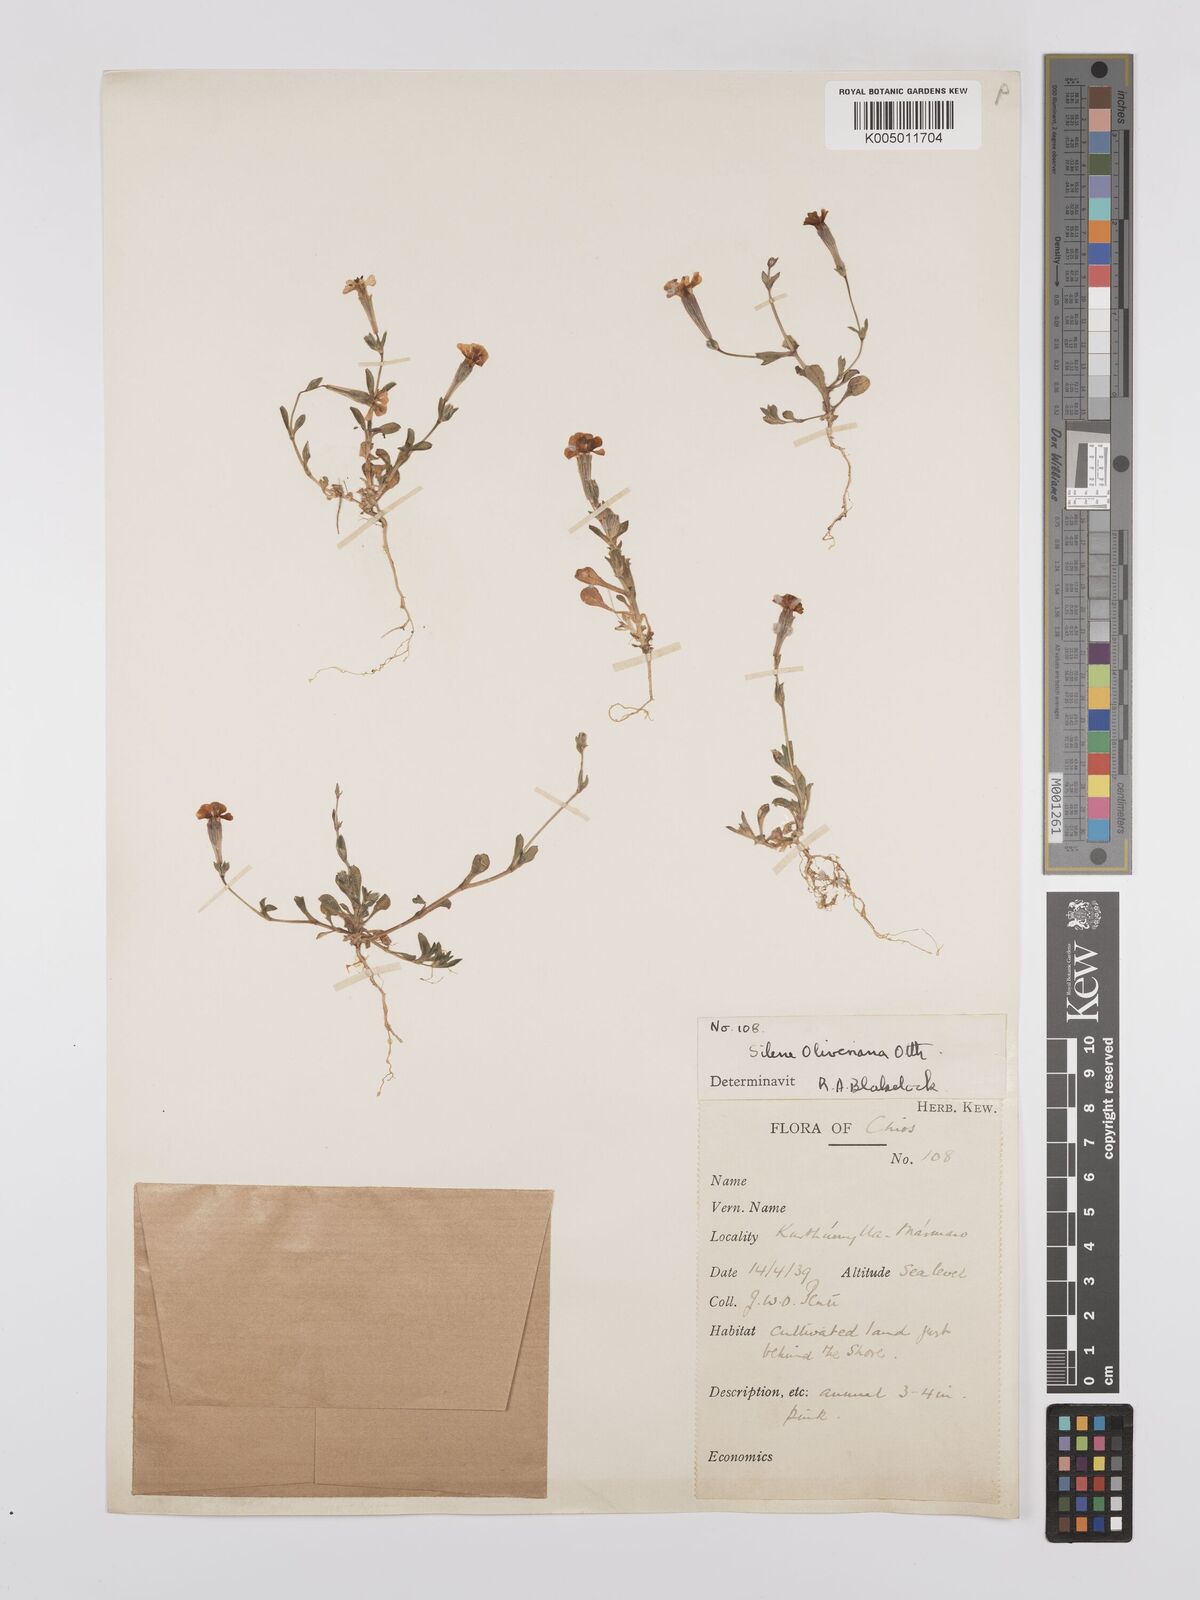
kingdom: Plantae
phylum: Tracheophyta
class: Magnoliopsida
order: Caryophyllales
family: Caryophyllaceae
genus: Silene
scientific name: Silene oliveriana
